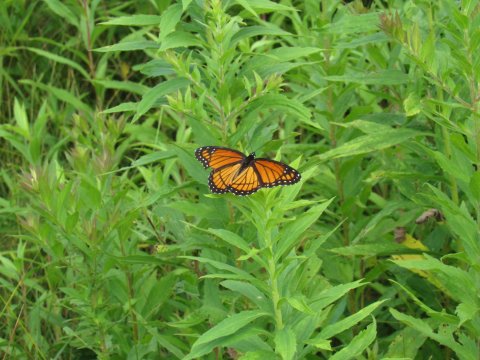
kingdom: Animalia
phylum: Arthropoda
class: Insecta
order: Lepidoptera
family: Nymphalidae
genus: Limenitis
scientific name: Limenitis archippus
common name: Viceroy
